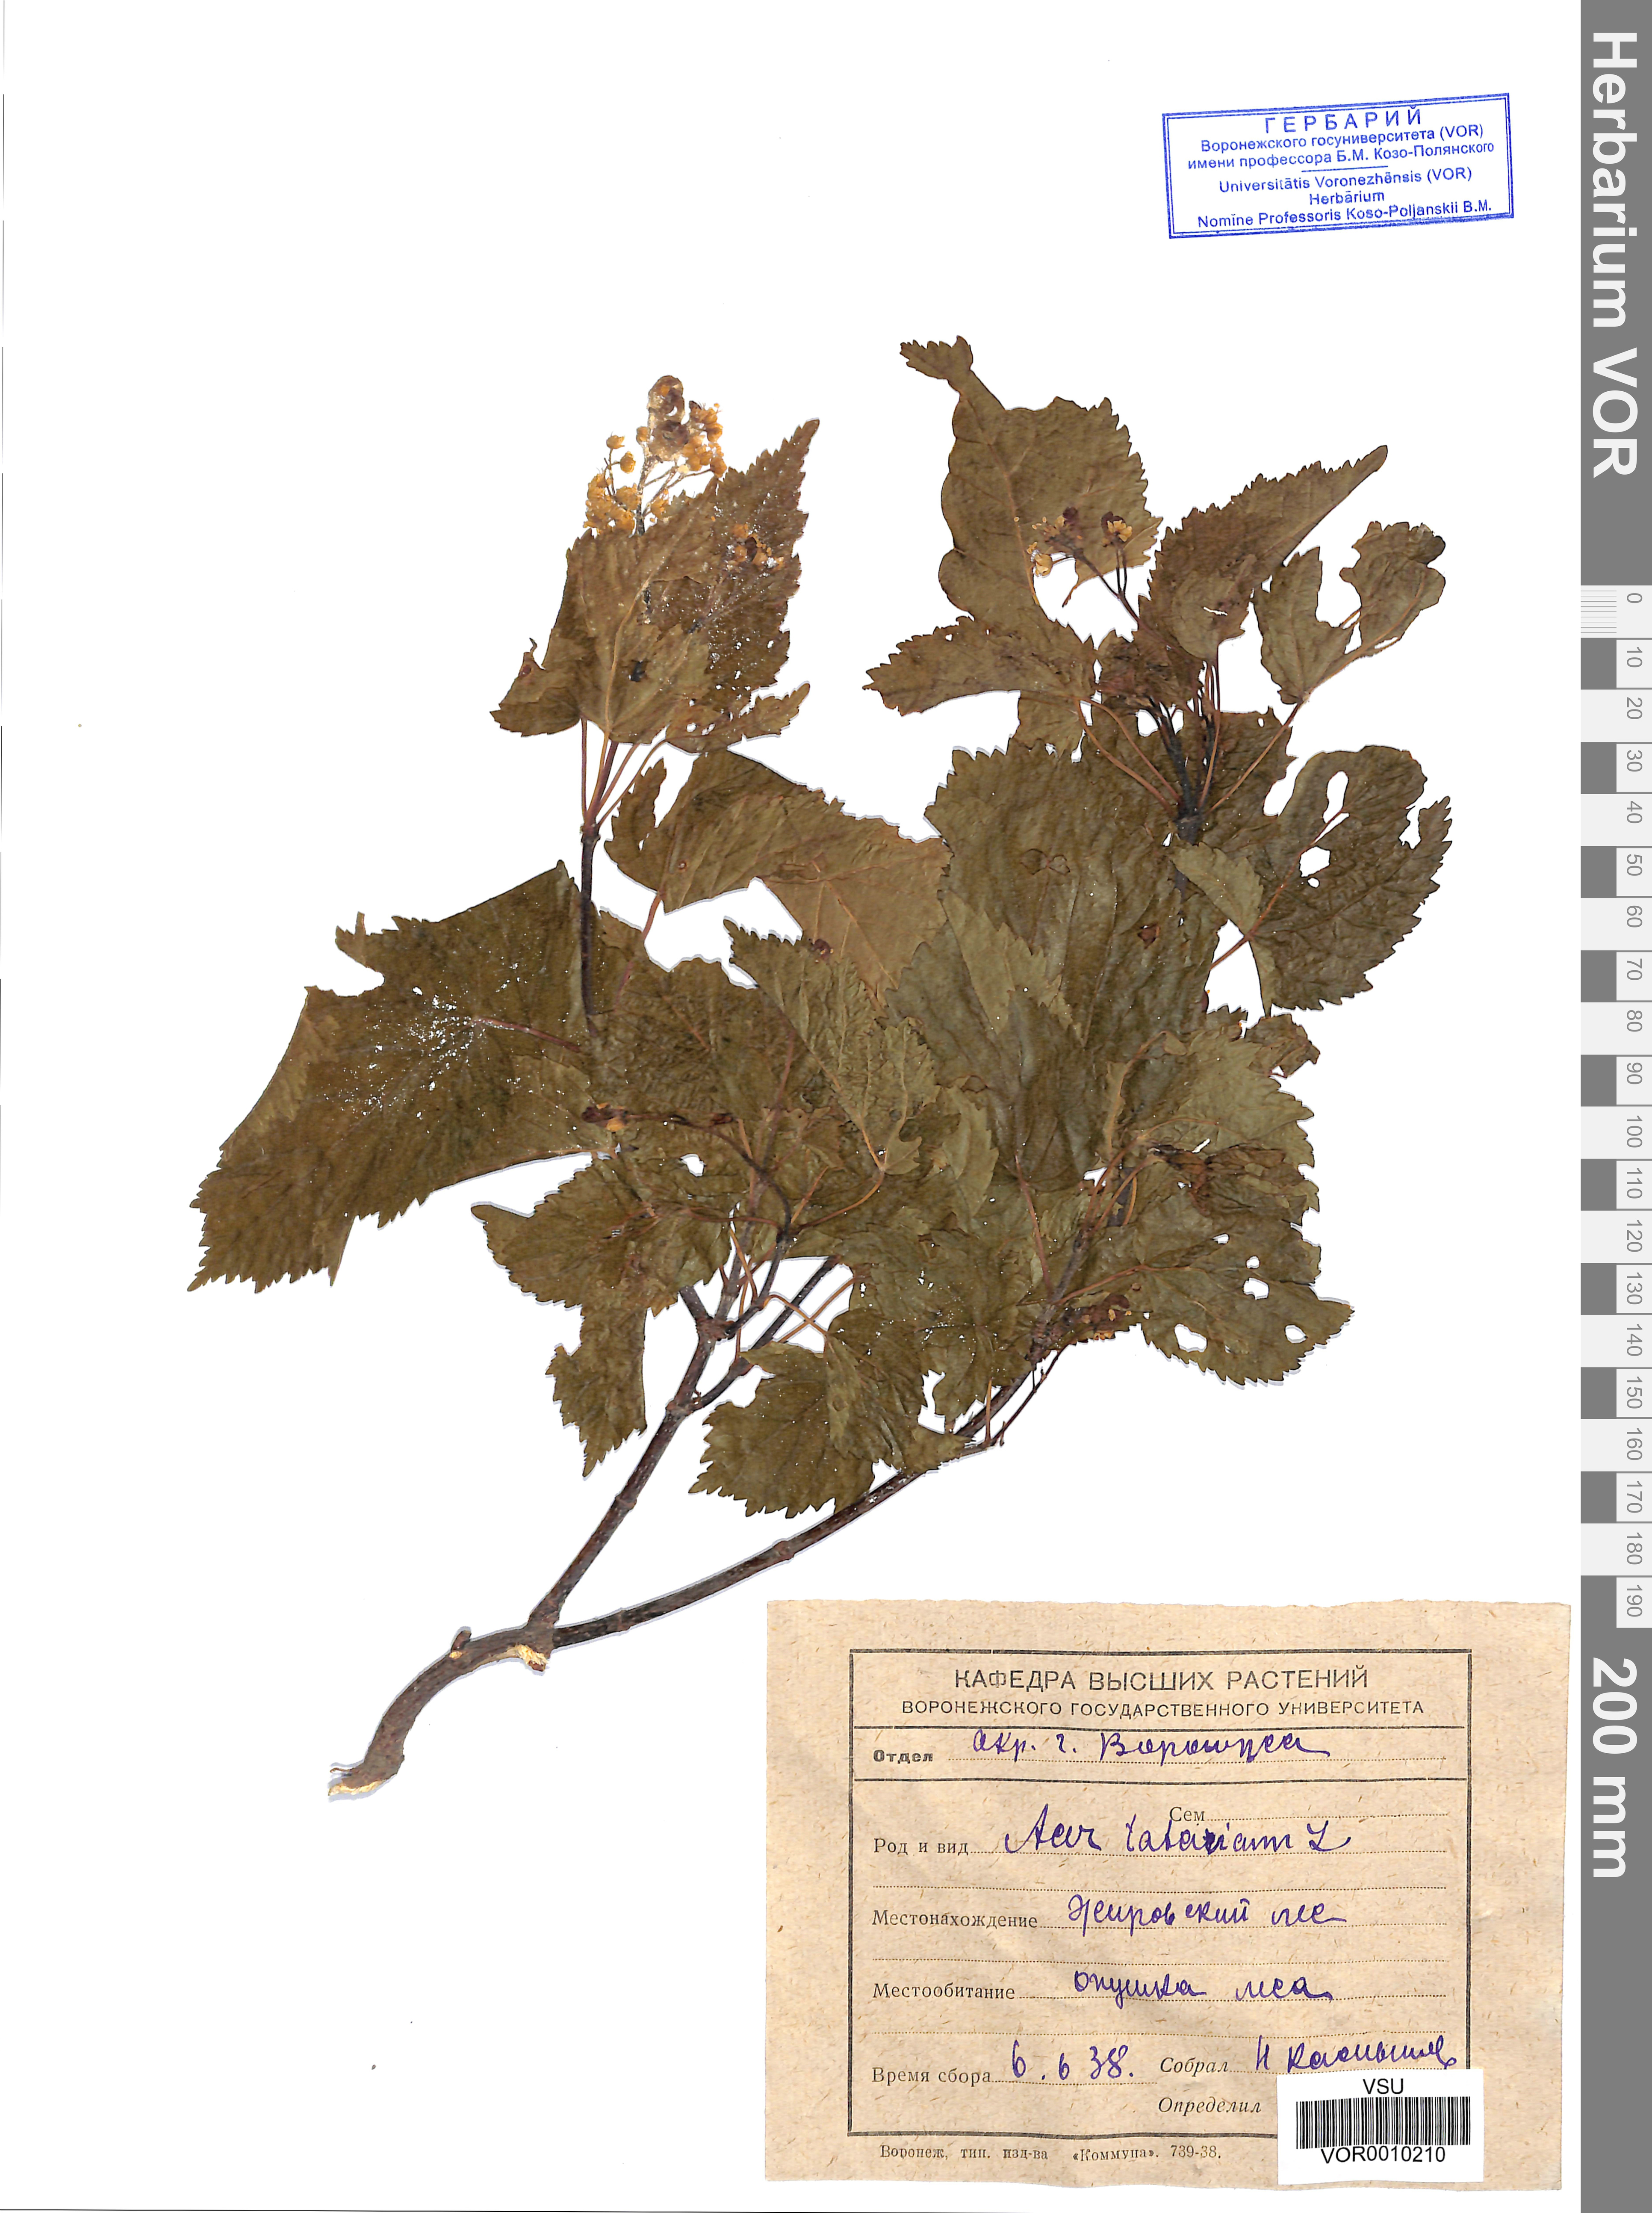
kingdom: Plantae
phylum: Tracheophyta
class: Magnoliopsida
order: Sapindales
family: Sapindaceae
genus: Acer
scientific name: Acer tataricum
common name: Tartar maple
